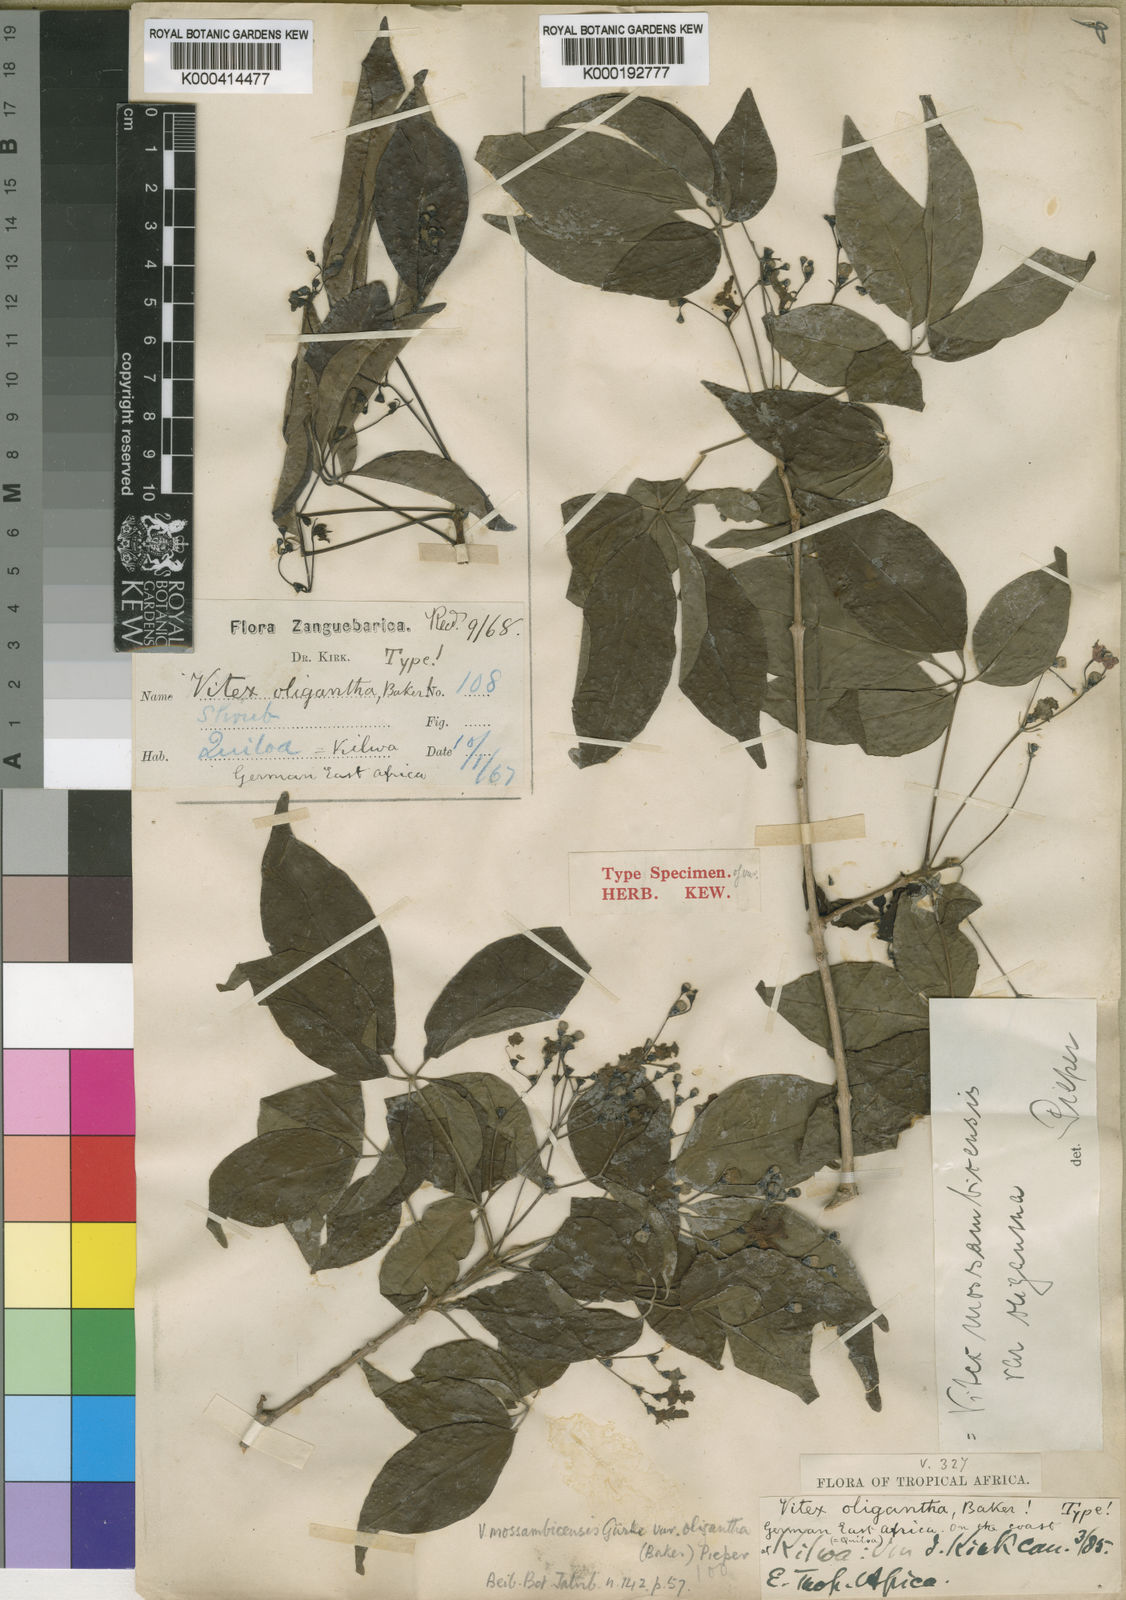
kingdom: Plantae
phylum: Tracheophyta
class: Magnoliopsida
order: Lamiales
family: Lamiaceae
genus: Vitex
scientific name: Vitex
